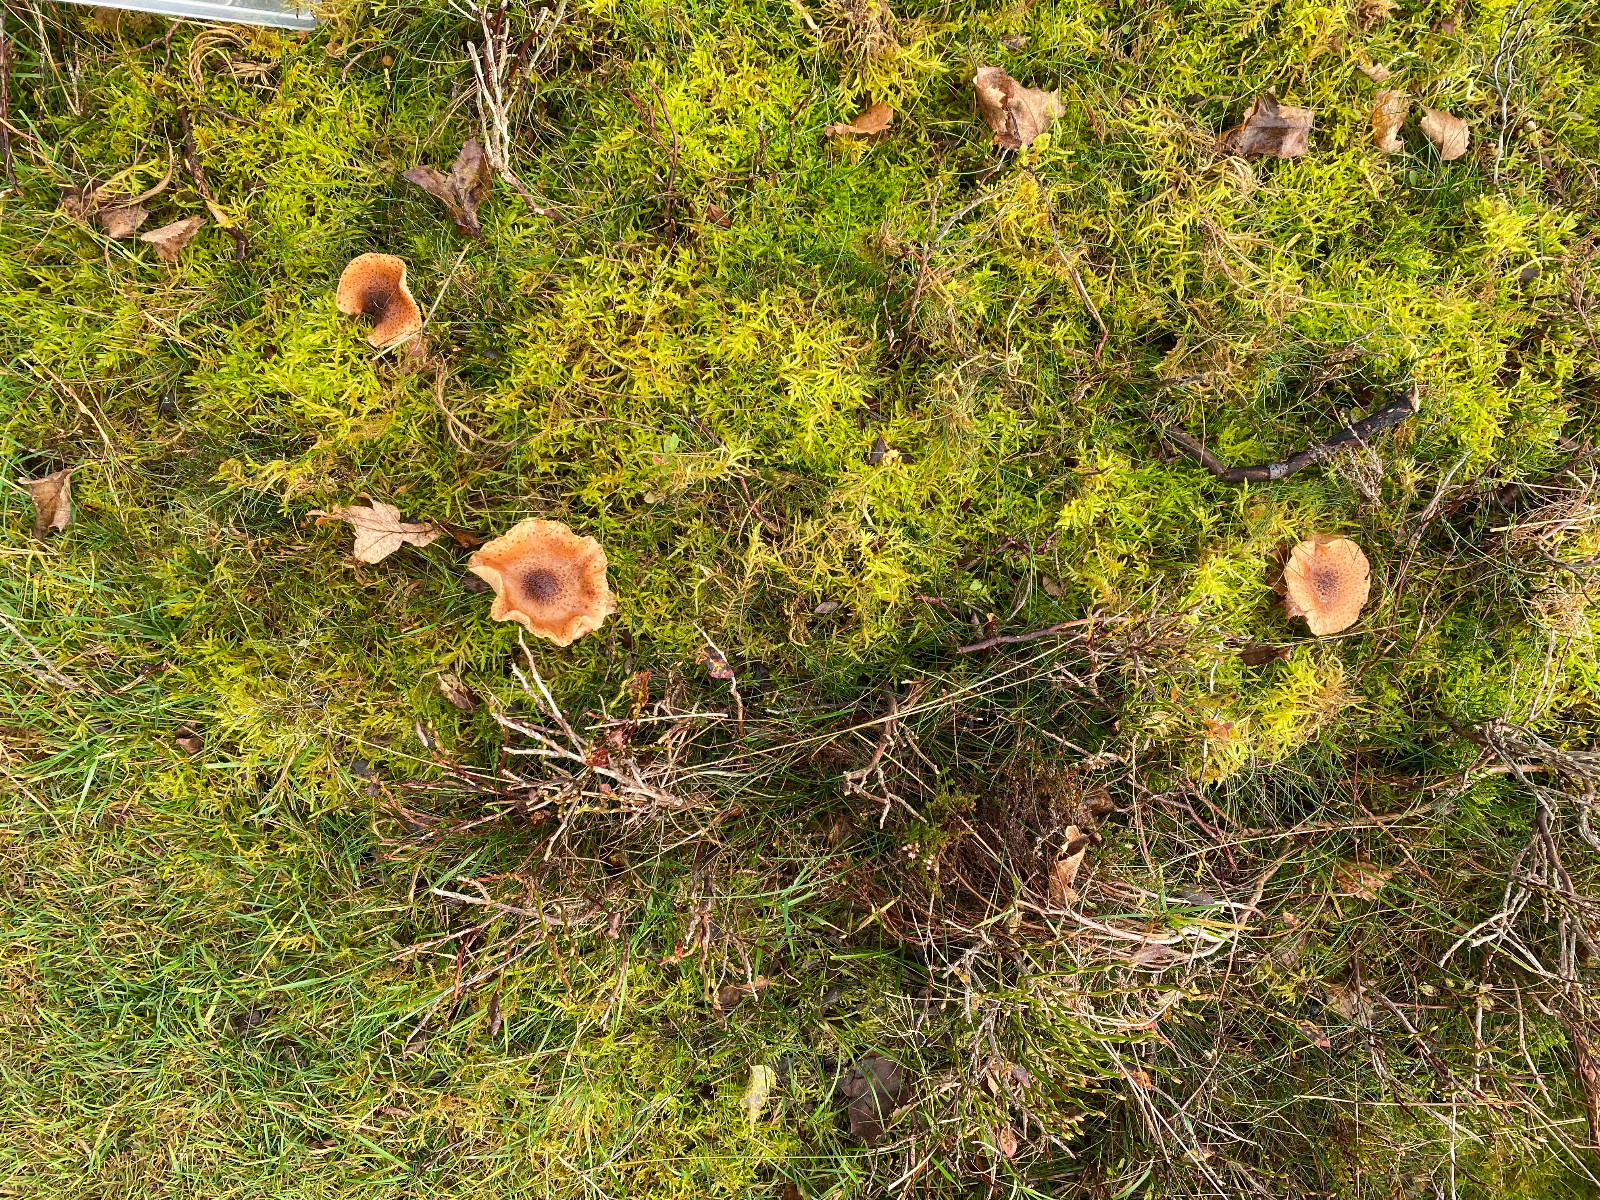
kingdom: Fungi
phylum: Basidiomycota
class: Agaricomycetes
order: Agaricales
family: Physalacriaceae
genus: Armillaria
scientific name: Armillaria ostoyae
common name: mørk honningsvamp
